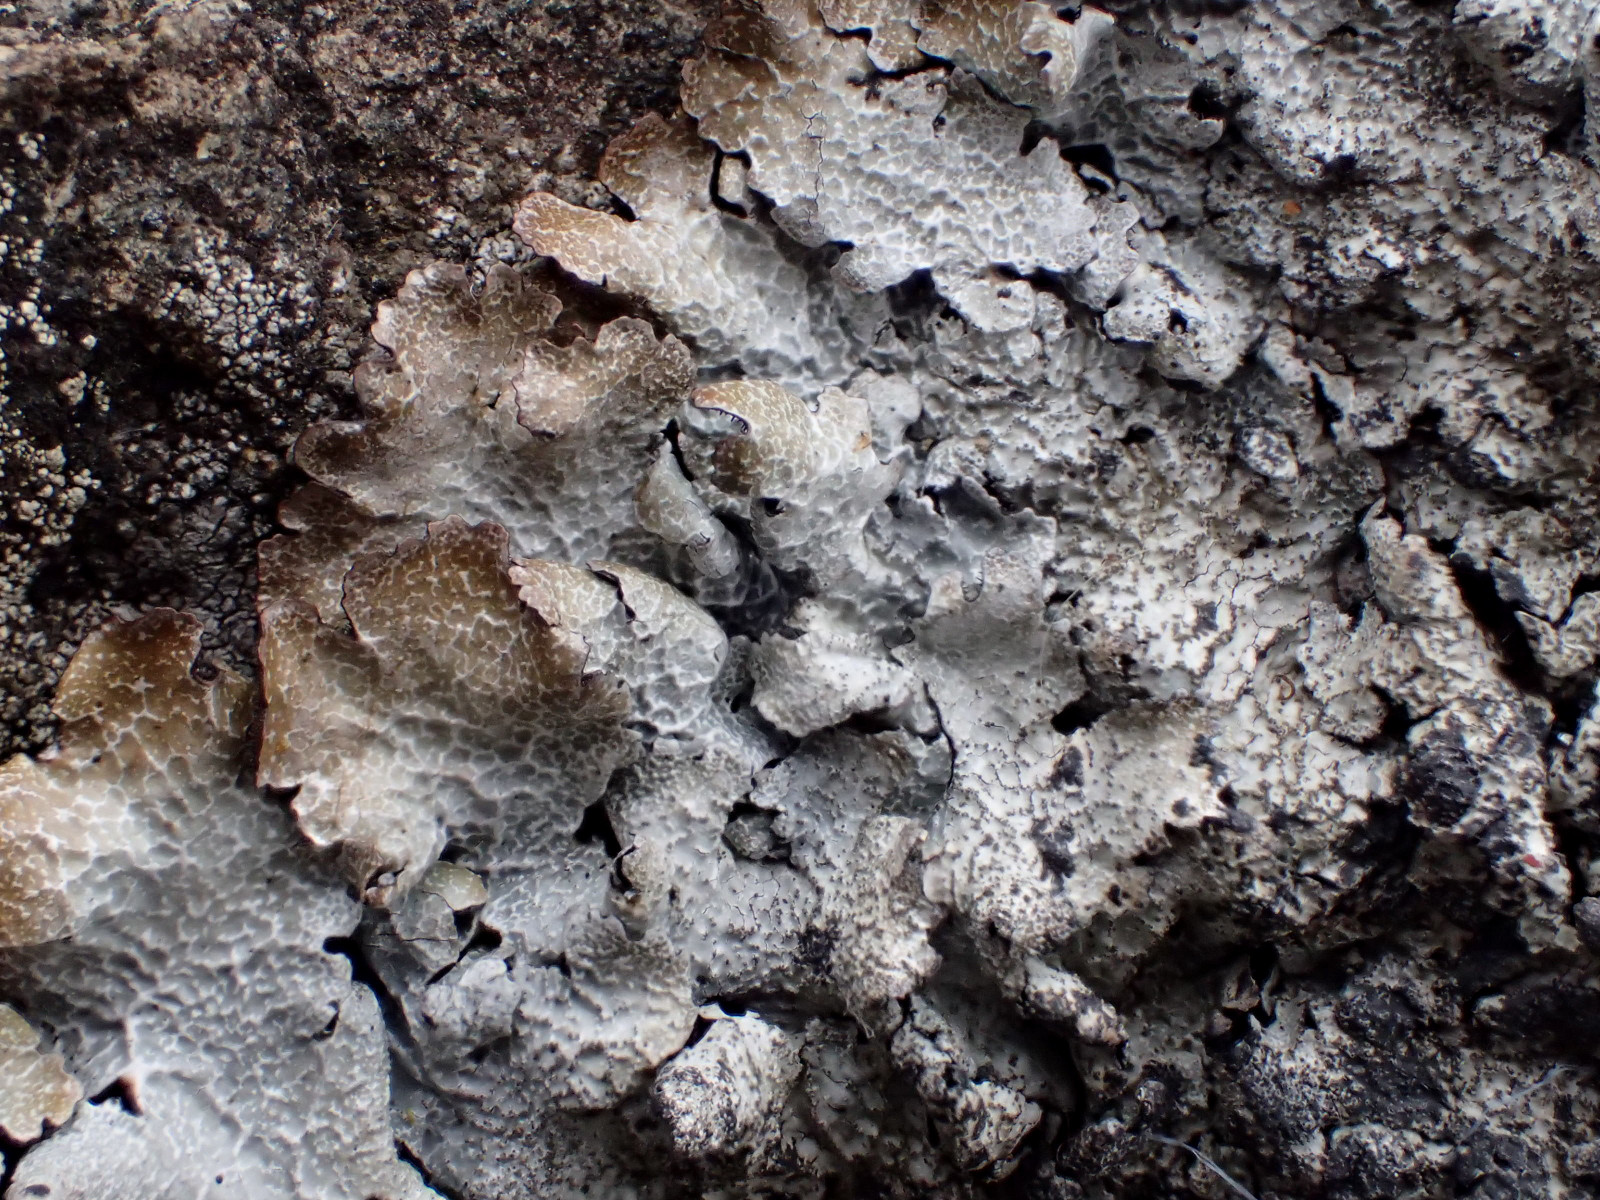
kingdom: Fungi
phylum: Ascomycota
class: Lecanoromycetes
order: Lecanorales
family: Parmeliaceae
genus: Parmelia
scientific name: Parmelia saxatilis
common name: farve-skållav
